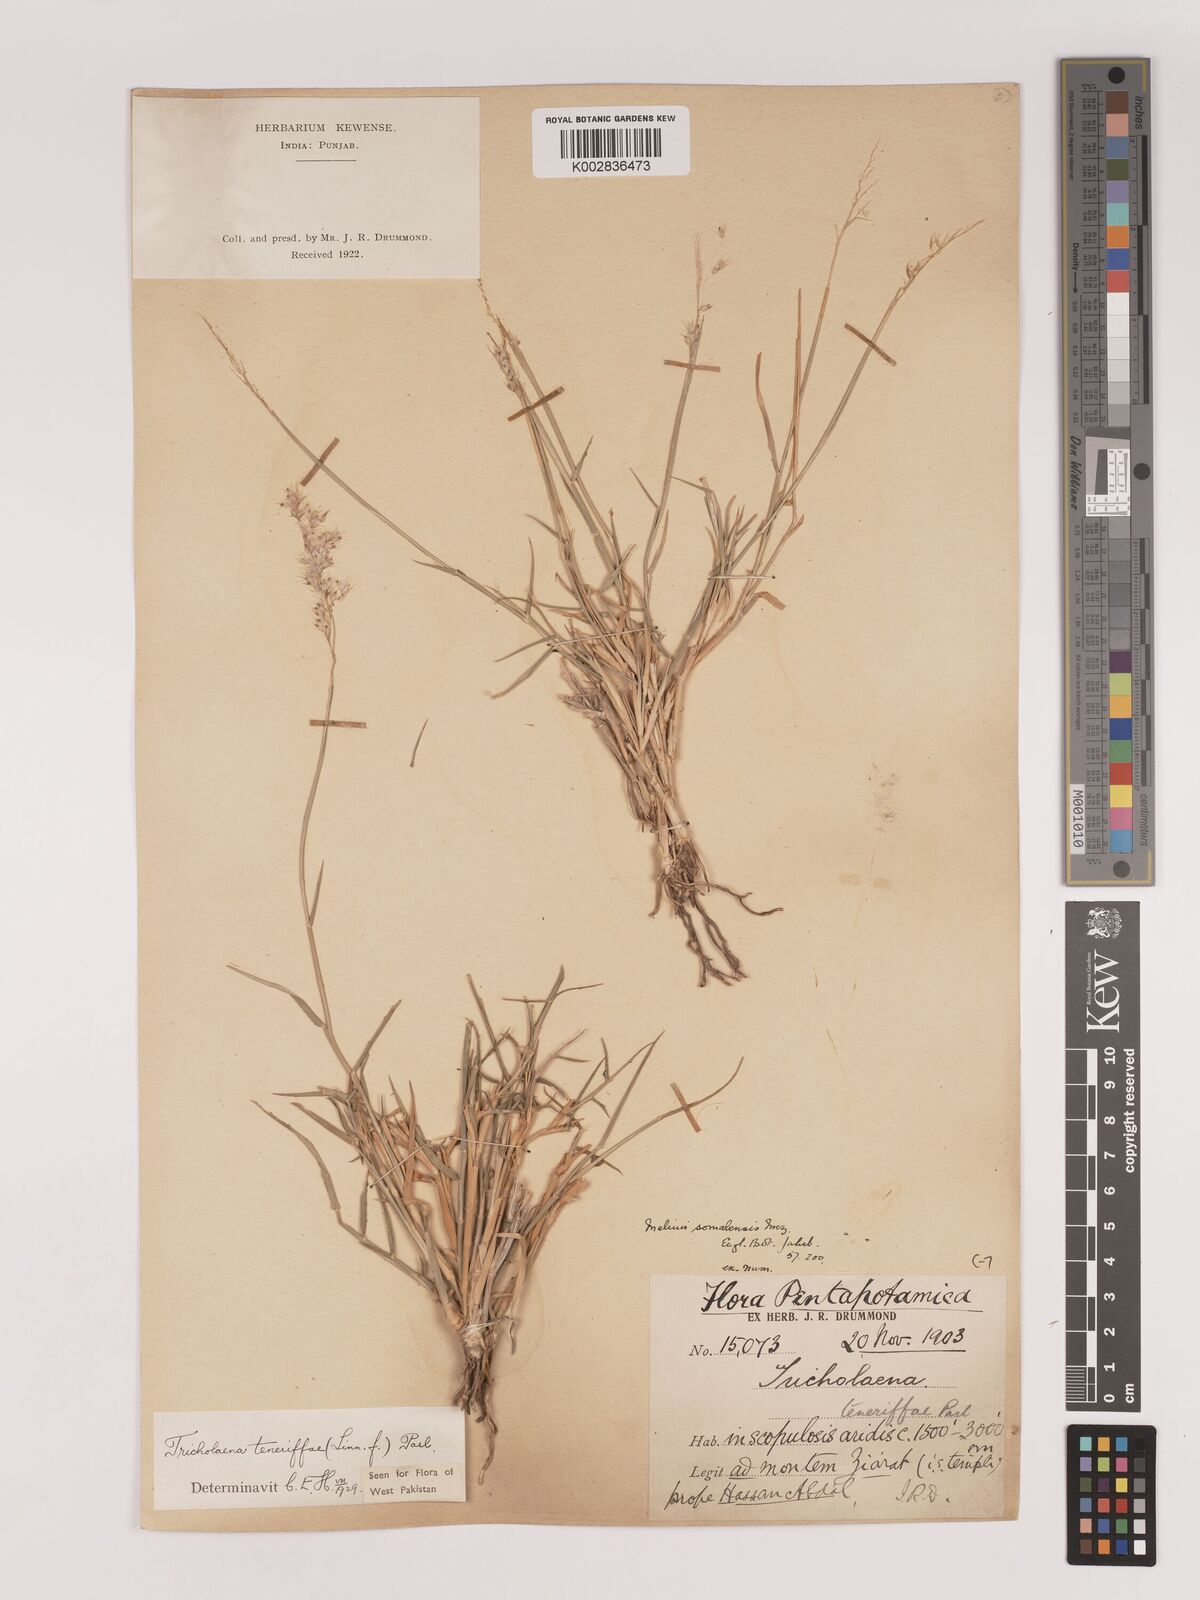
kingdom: Plantae
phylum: Tracheophyta
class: Liliopsida
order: Poales
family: Poaceae
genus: Tricholaena
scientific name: Tricholaena teneriffae
